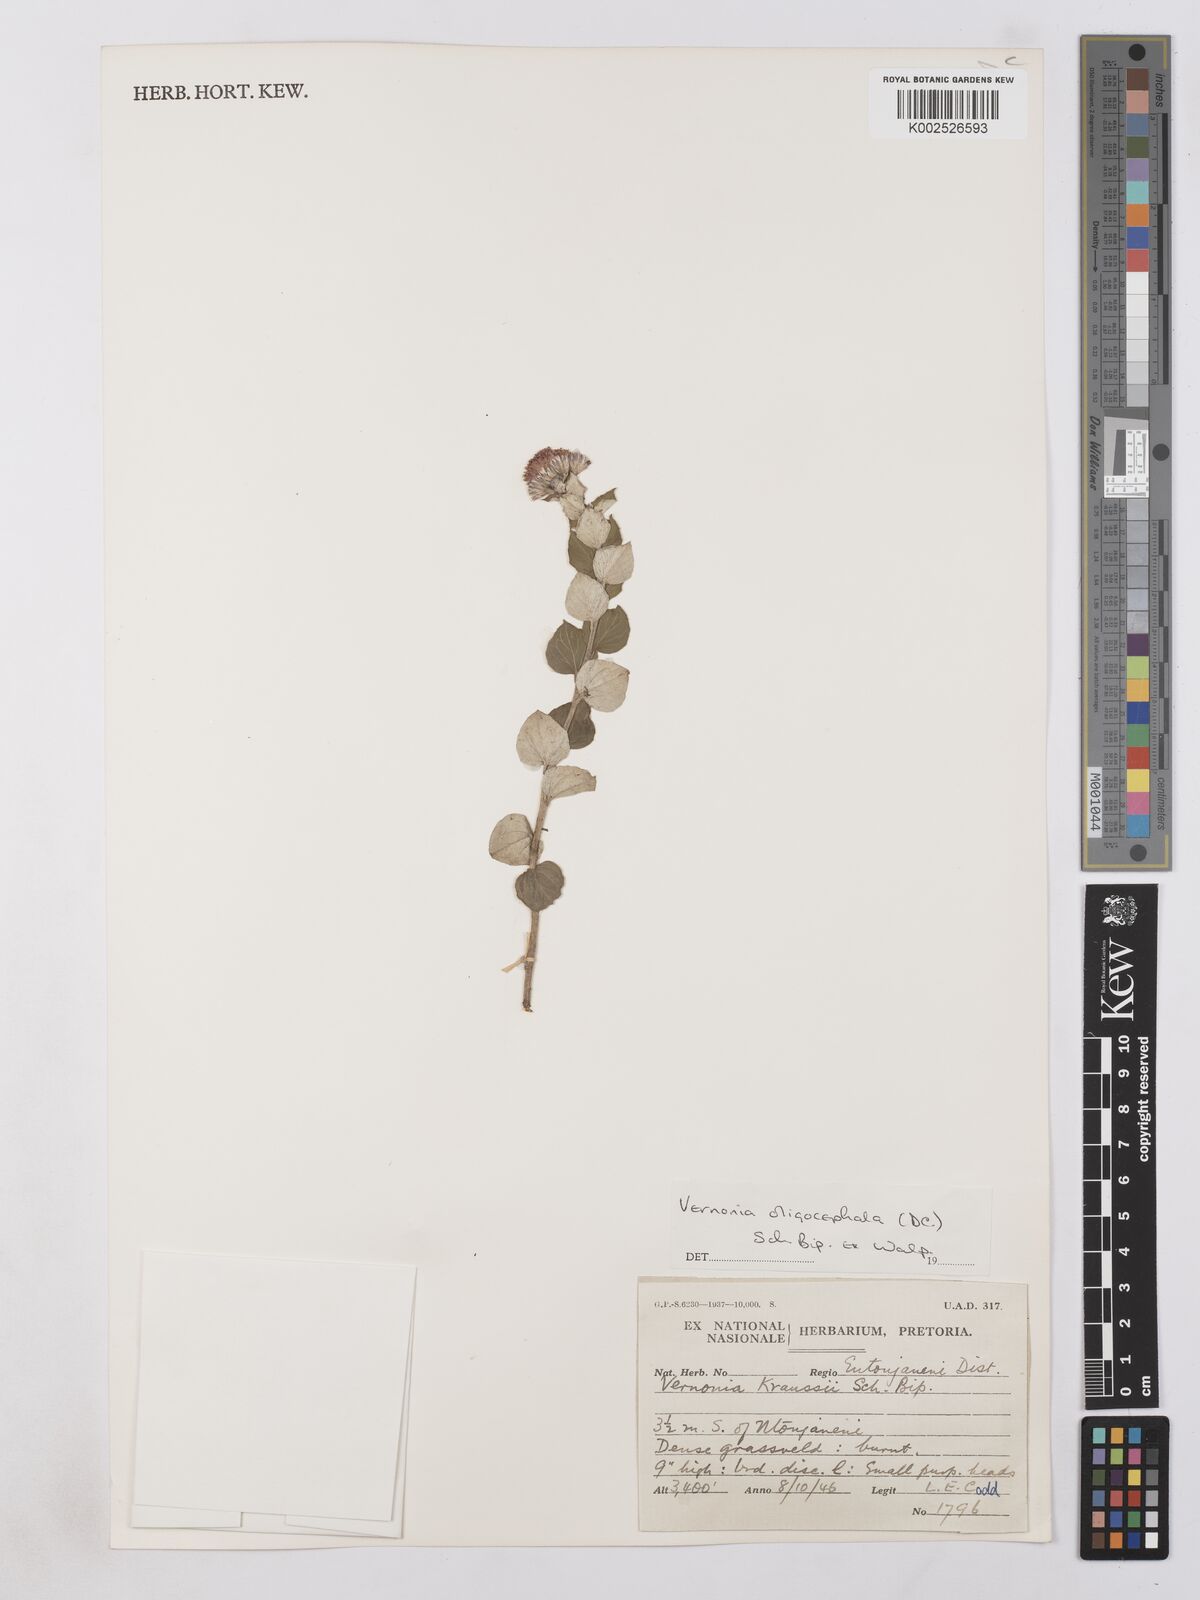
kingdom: Plantae
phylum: Tracheophyta
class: Magnoliopsida
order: Asterales
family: Asteraceae
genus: Lepidaploa
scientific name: Lepidaploa aurea
